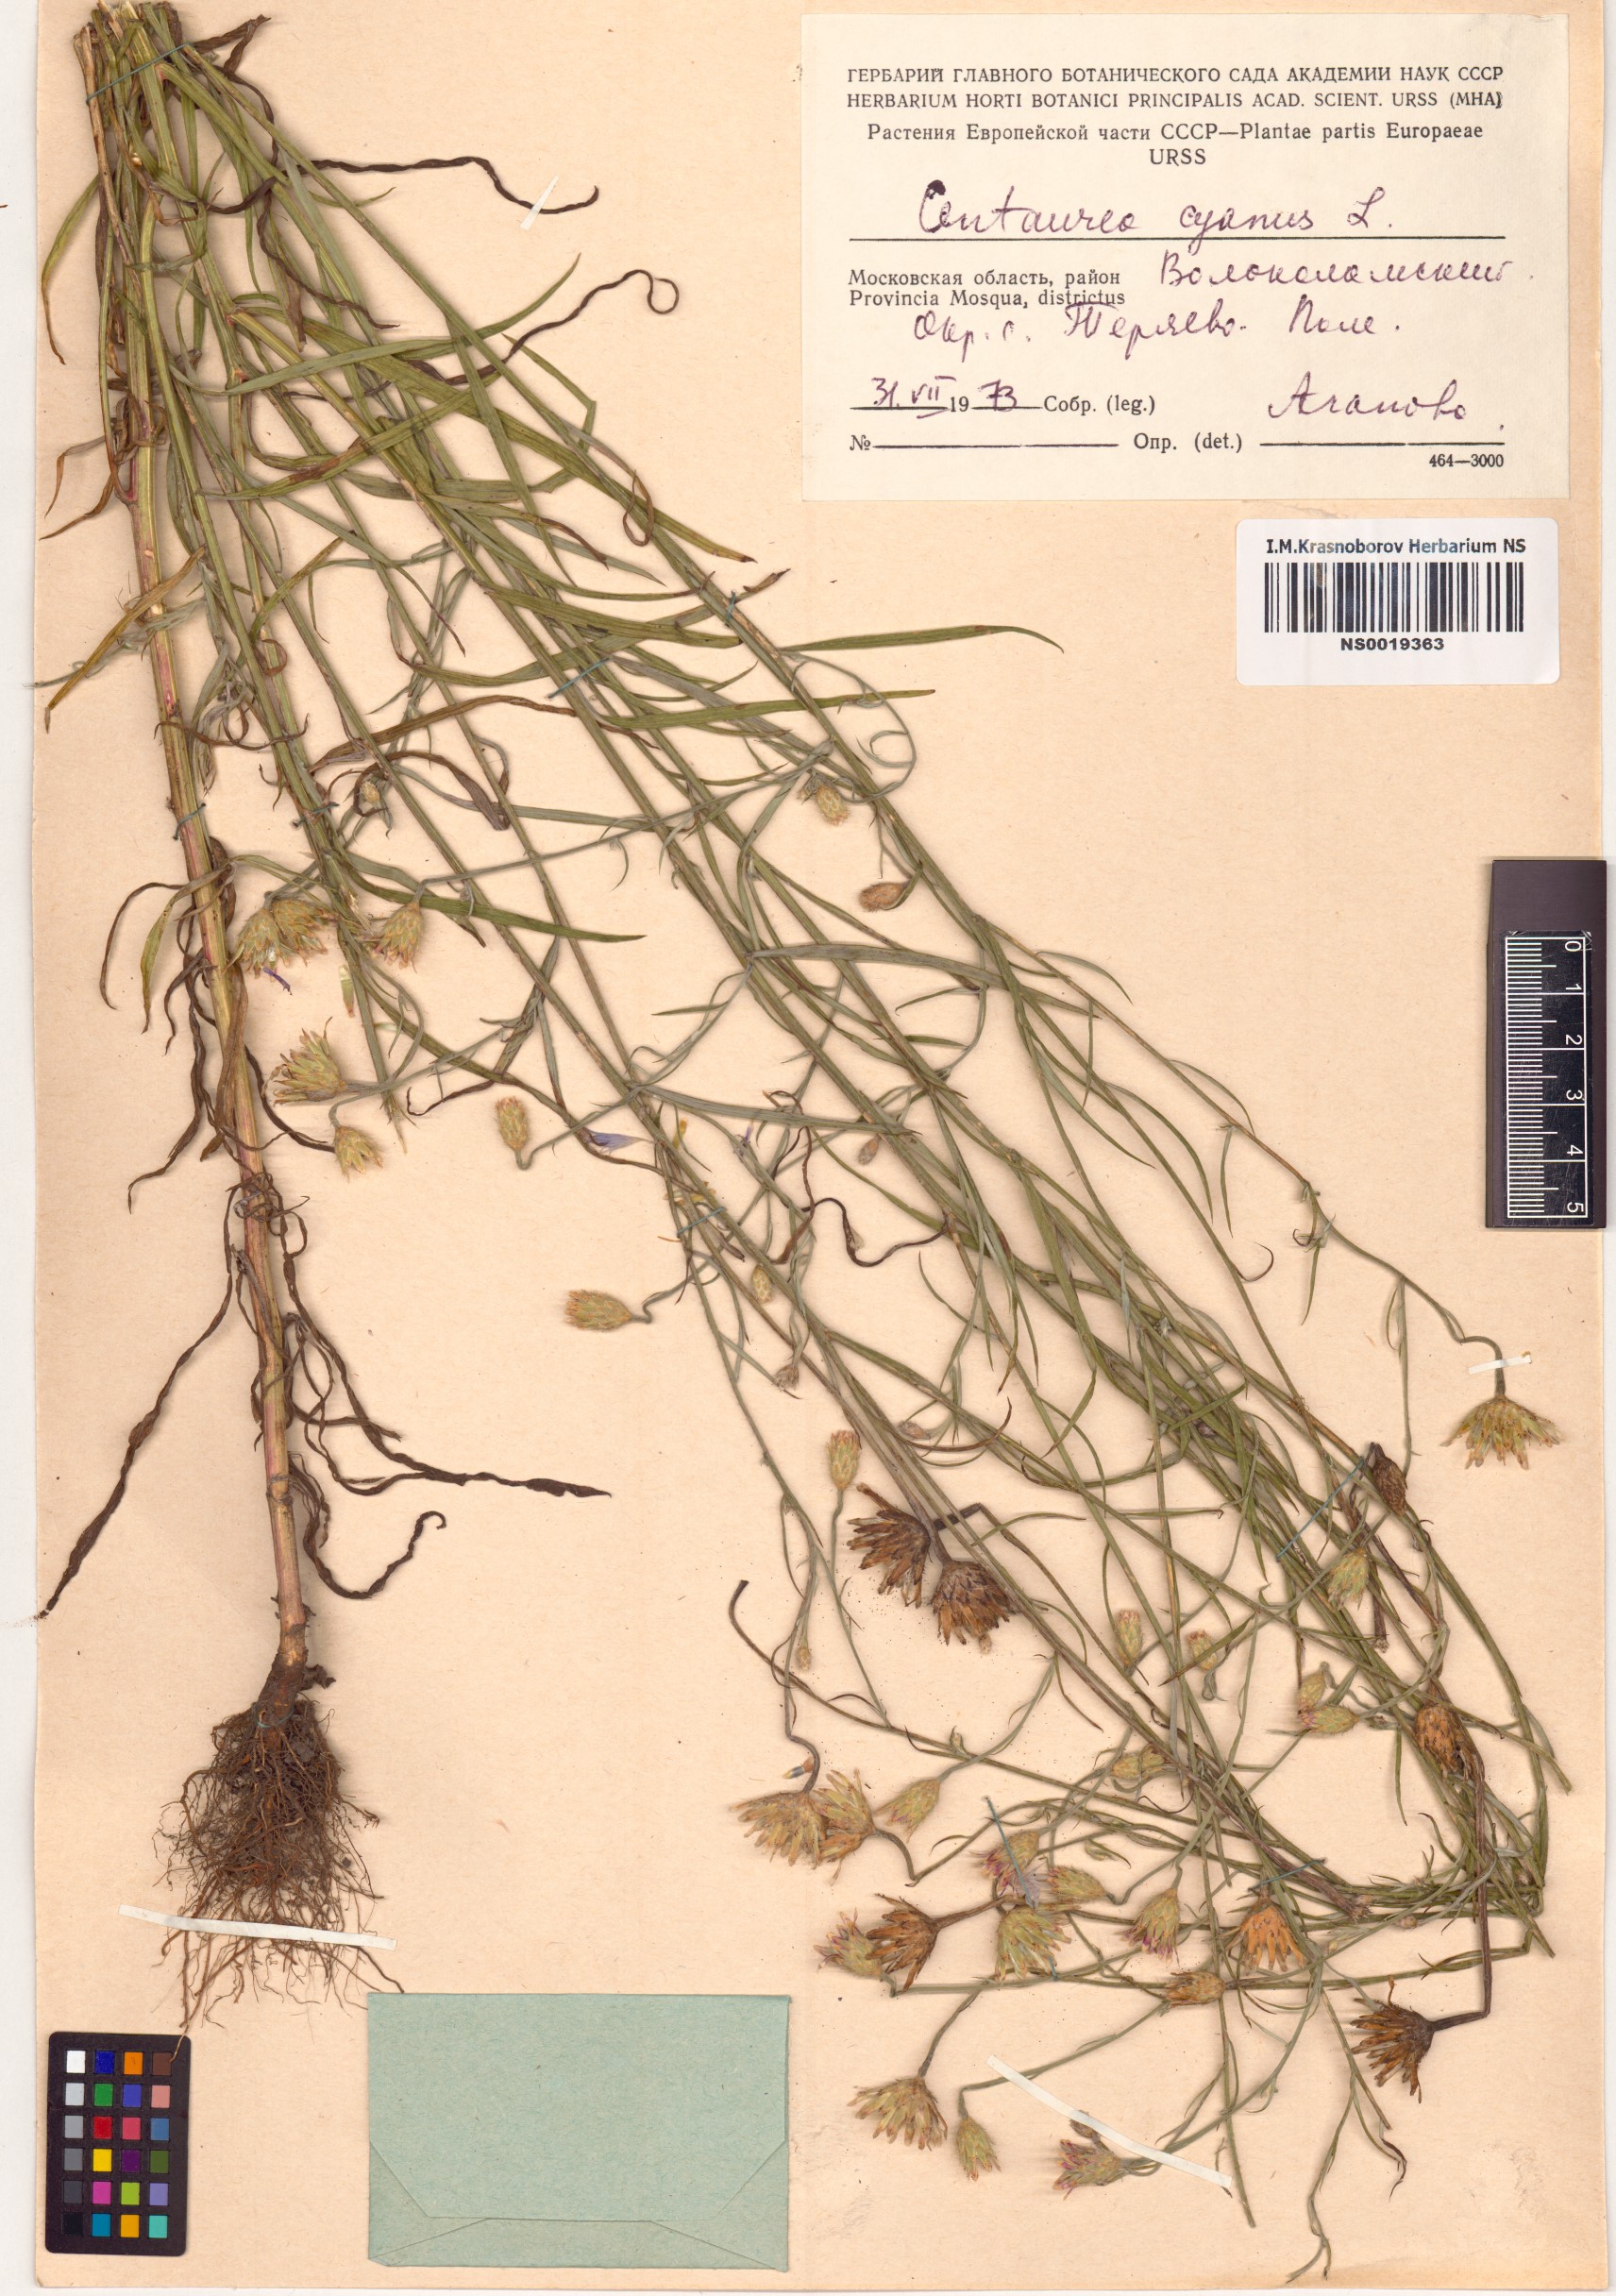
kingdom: Plantae
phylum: Tracheophyta
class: Magnoliopsida
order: Asterales
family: Asteraceae
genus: Centaurea
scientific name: Centaurea cyanus
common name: Cornflower
